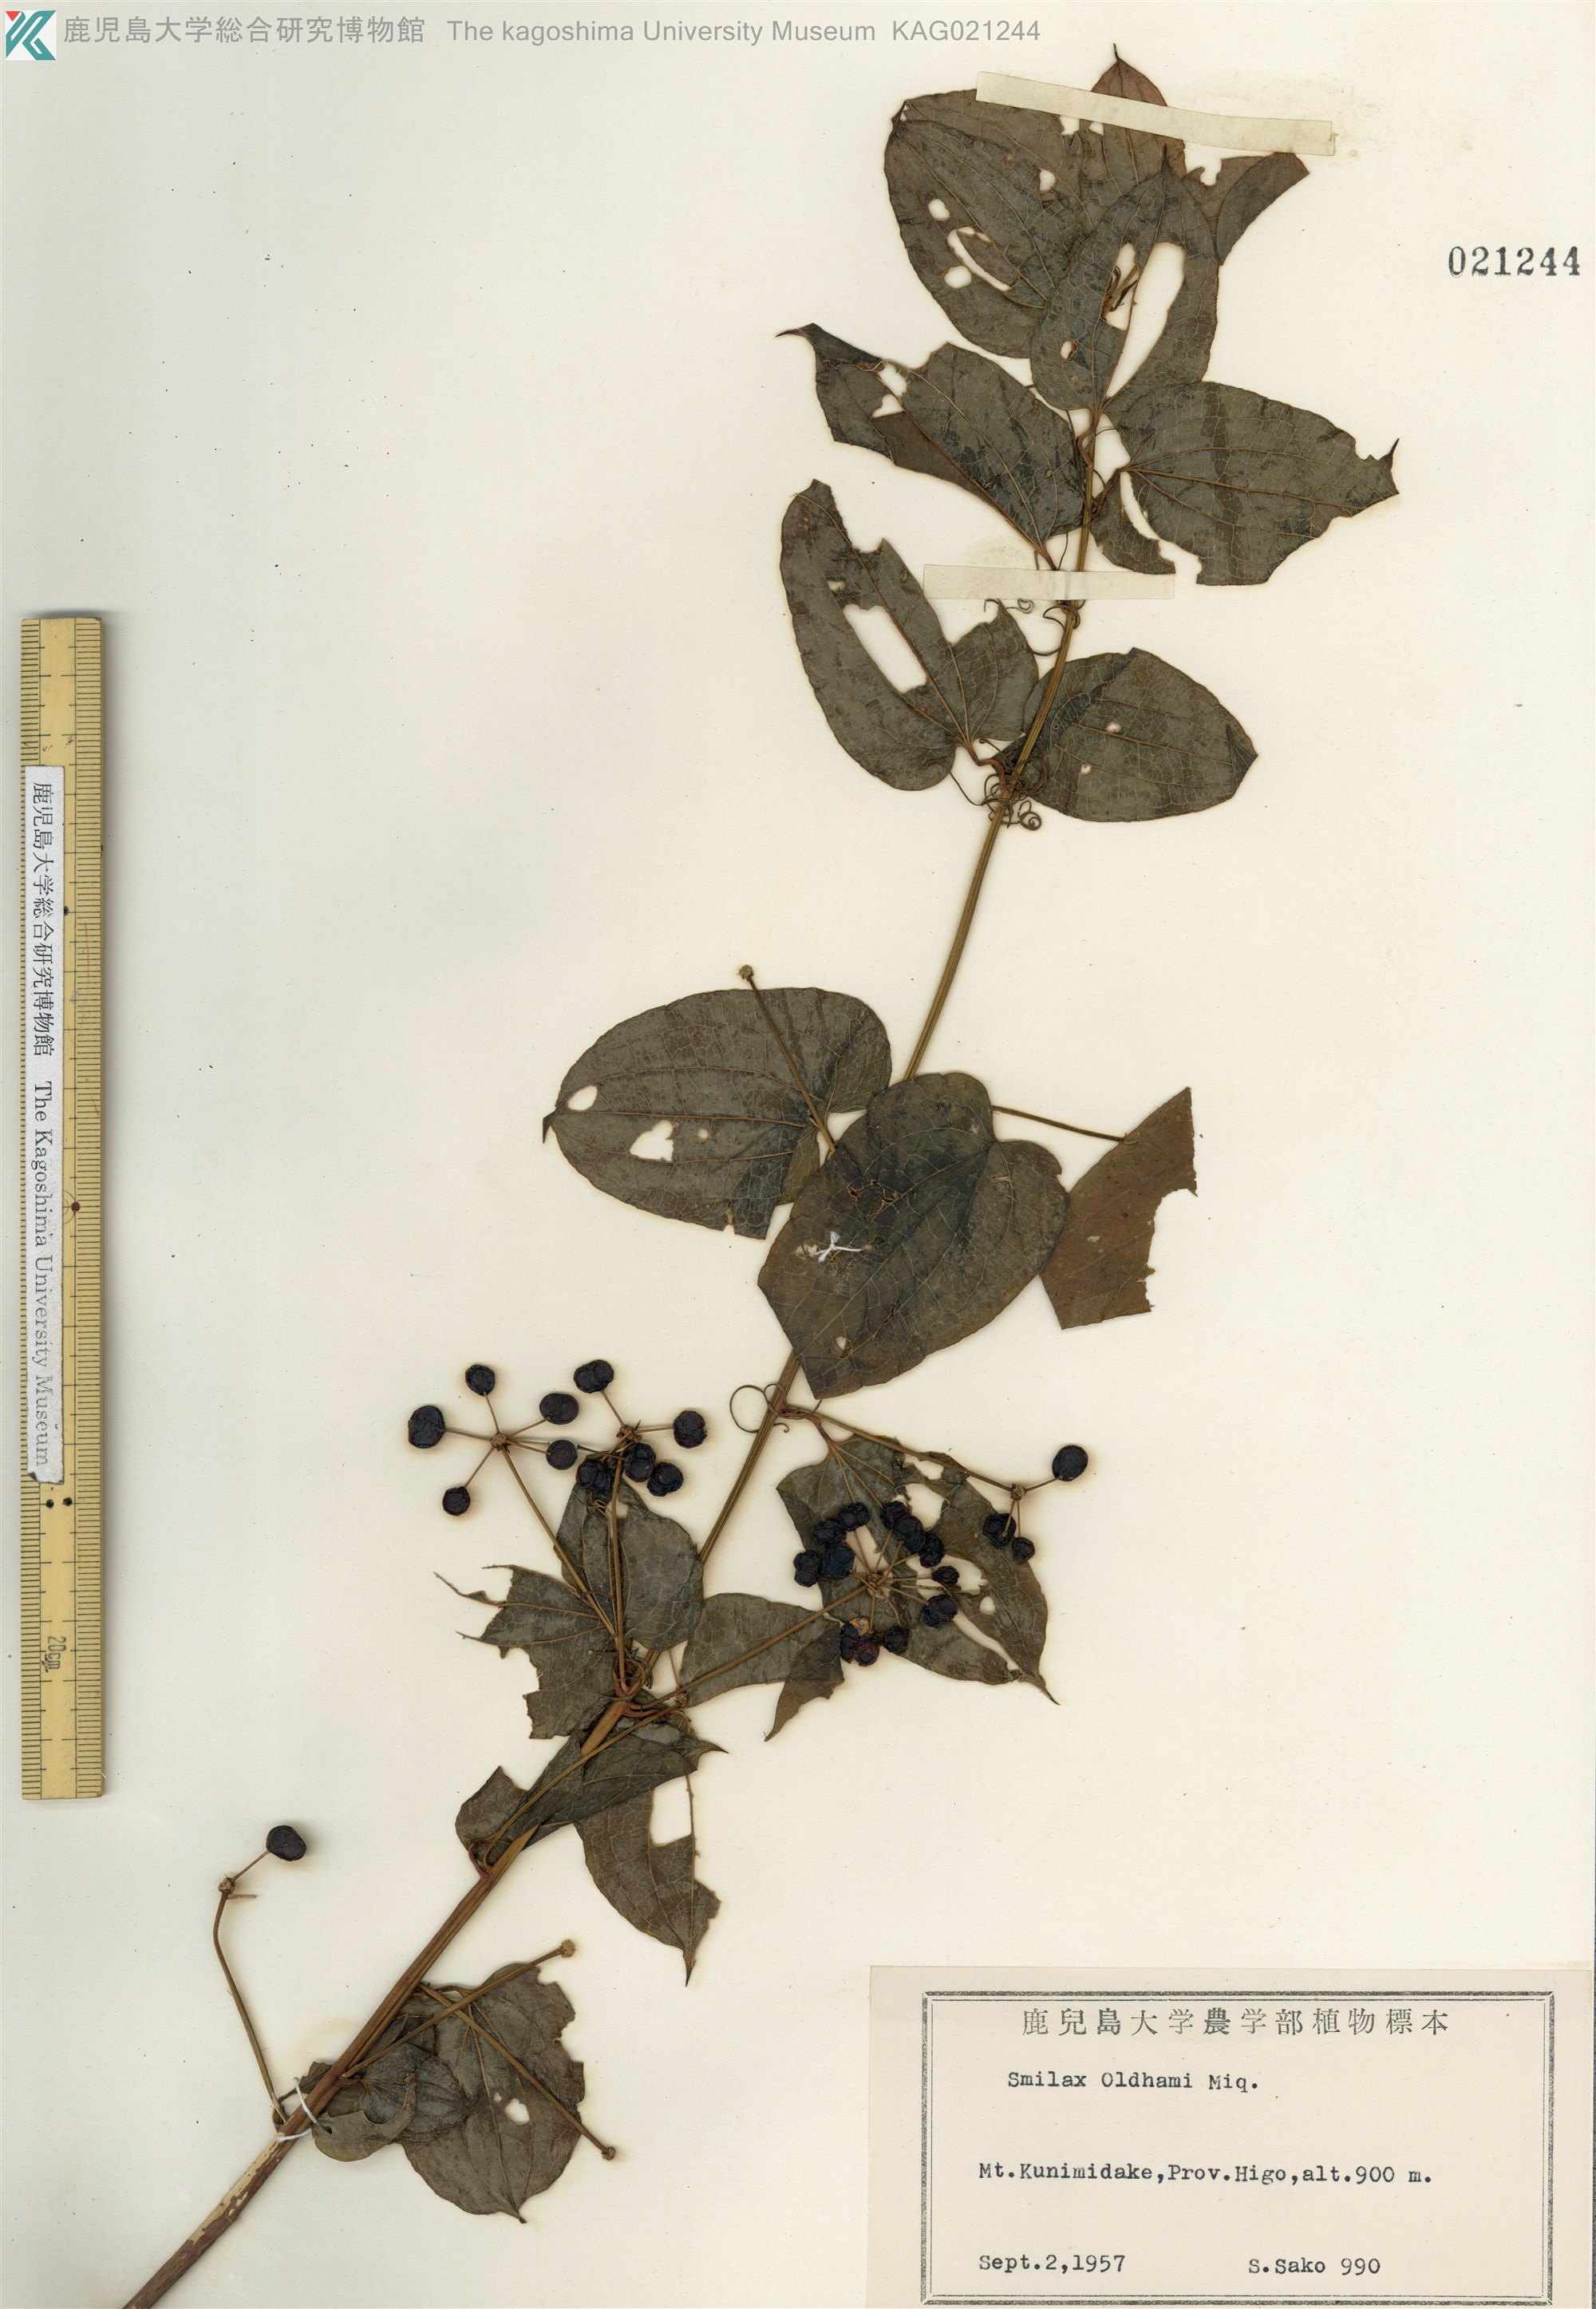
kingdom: Plantae
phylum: Tracheophyta
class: Liliopsida
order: Liliales
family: Smilacaceae
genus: Smilax
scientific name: Smilax riparia
